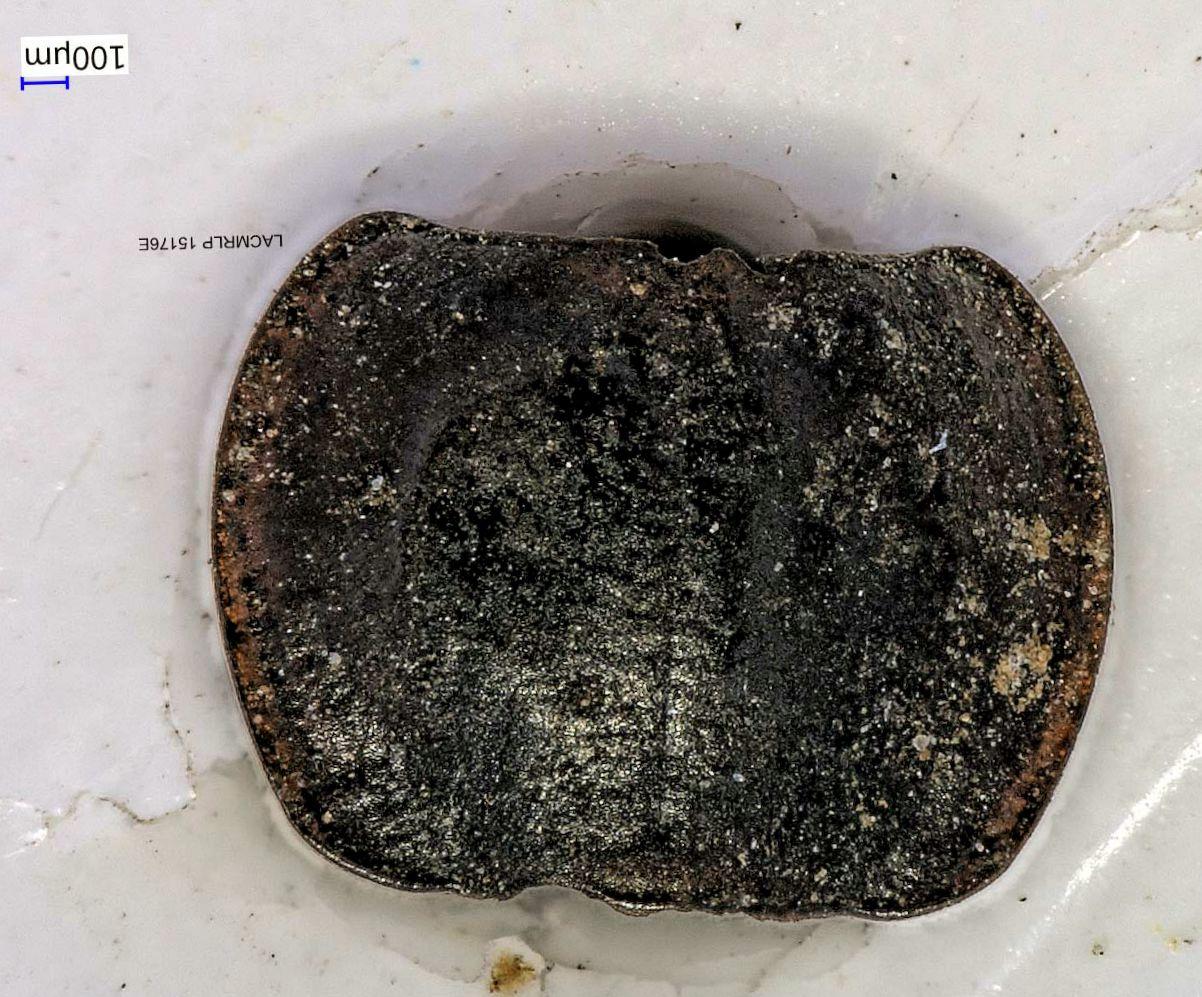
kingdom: Animalia
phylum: Arthropoda
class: Insecta
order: Coleoptera
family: Carabidae
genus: Tanystoma
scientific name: Tanystoma maculicolle
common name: Tule beetle
